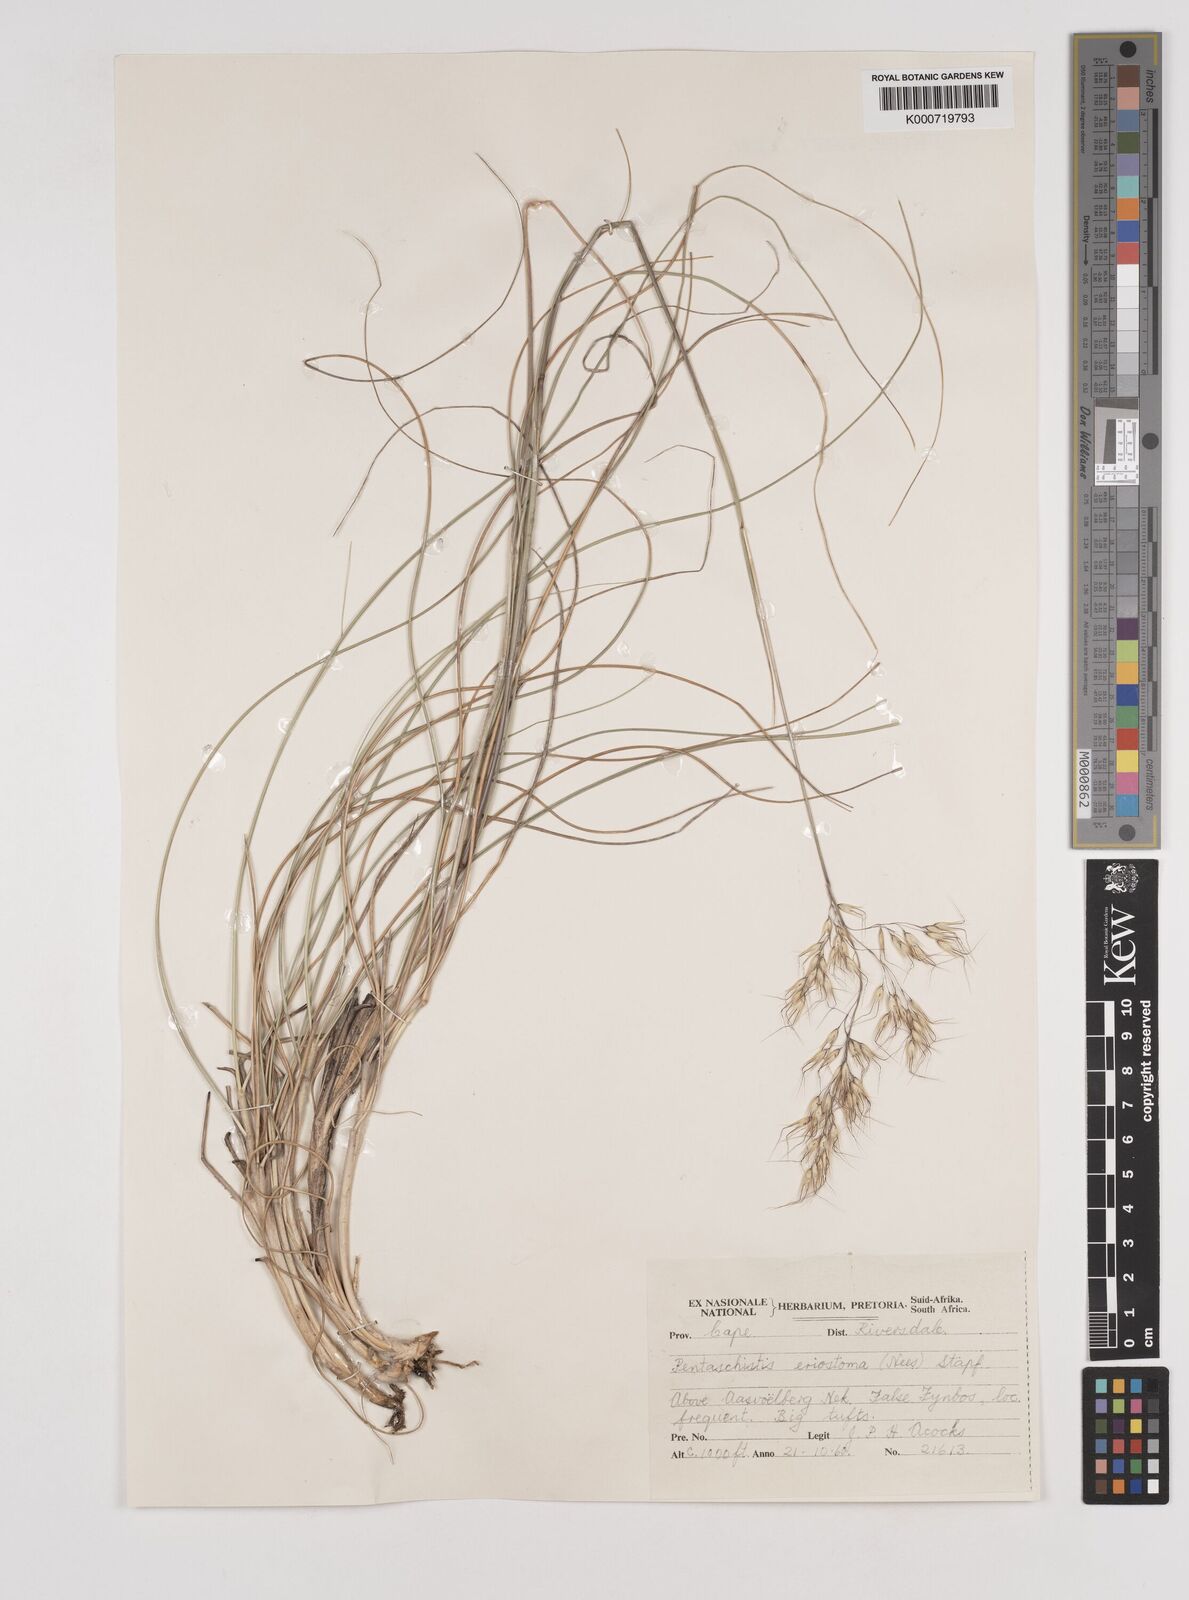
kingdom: Plantae
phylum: Tracheophyta
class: Liliopsida
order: Poales
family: Poaceae
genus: Pentameris
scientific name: Pentameris eriostoma
